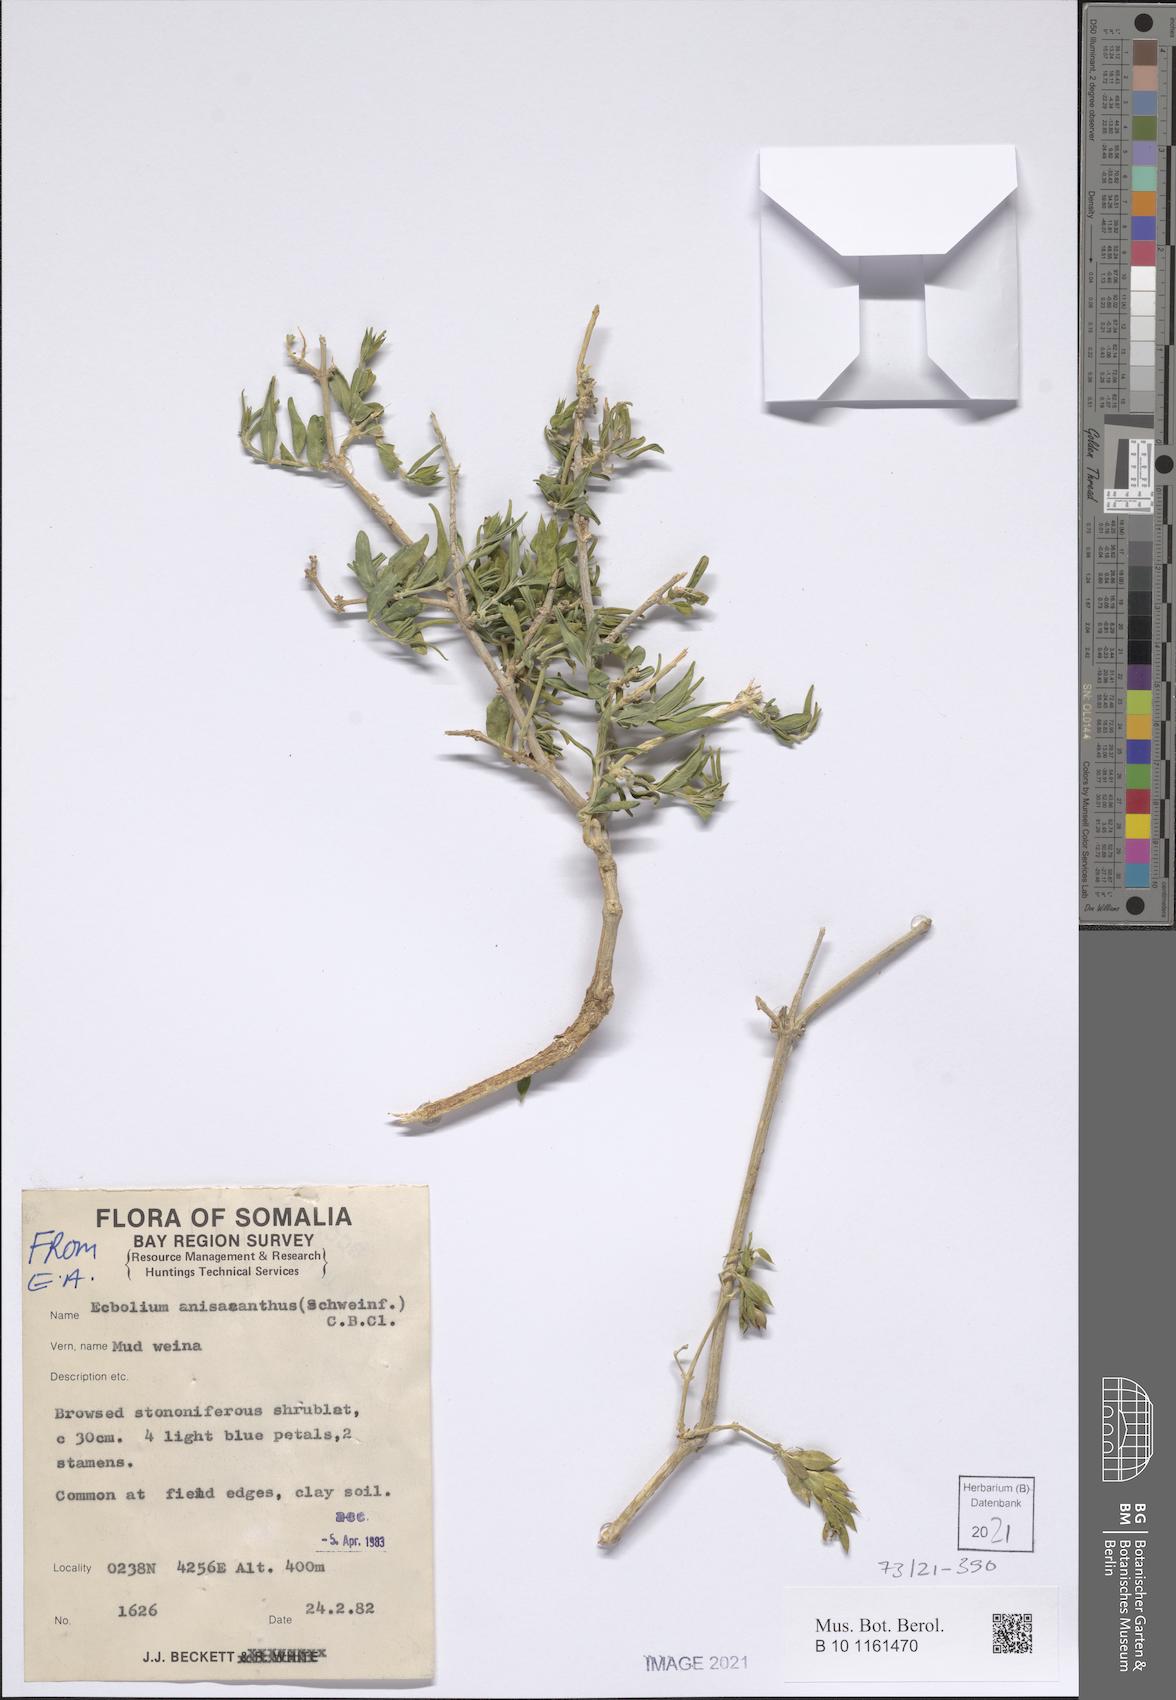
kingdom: Plantae
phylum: Tracheophyta
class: Magnoliopsida
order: Lamiales
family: Acanthaceae
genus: Megalochlamys
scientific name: Megalochlamys violacea
